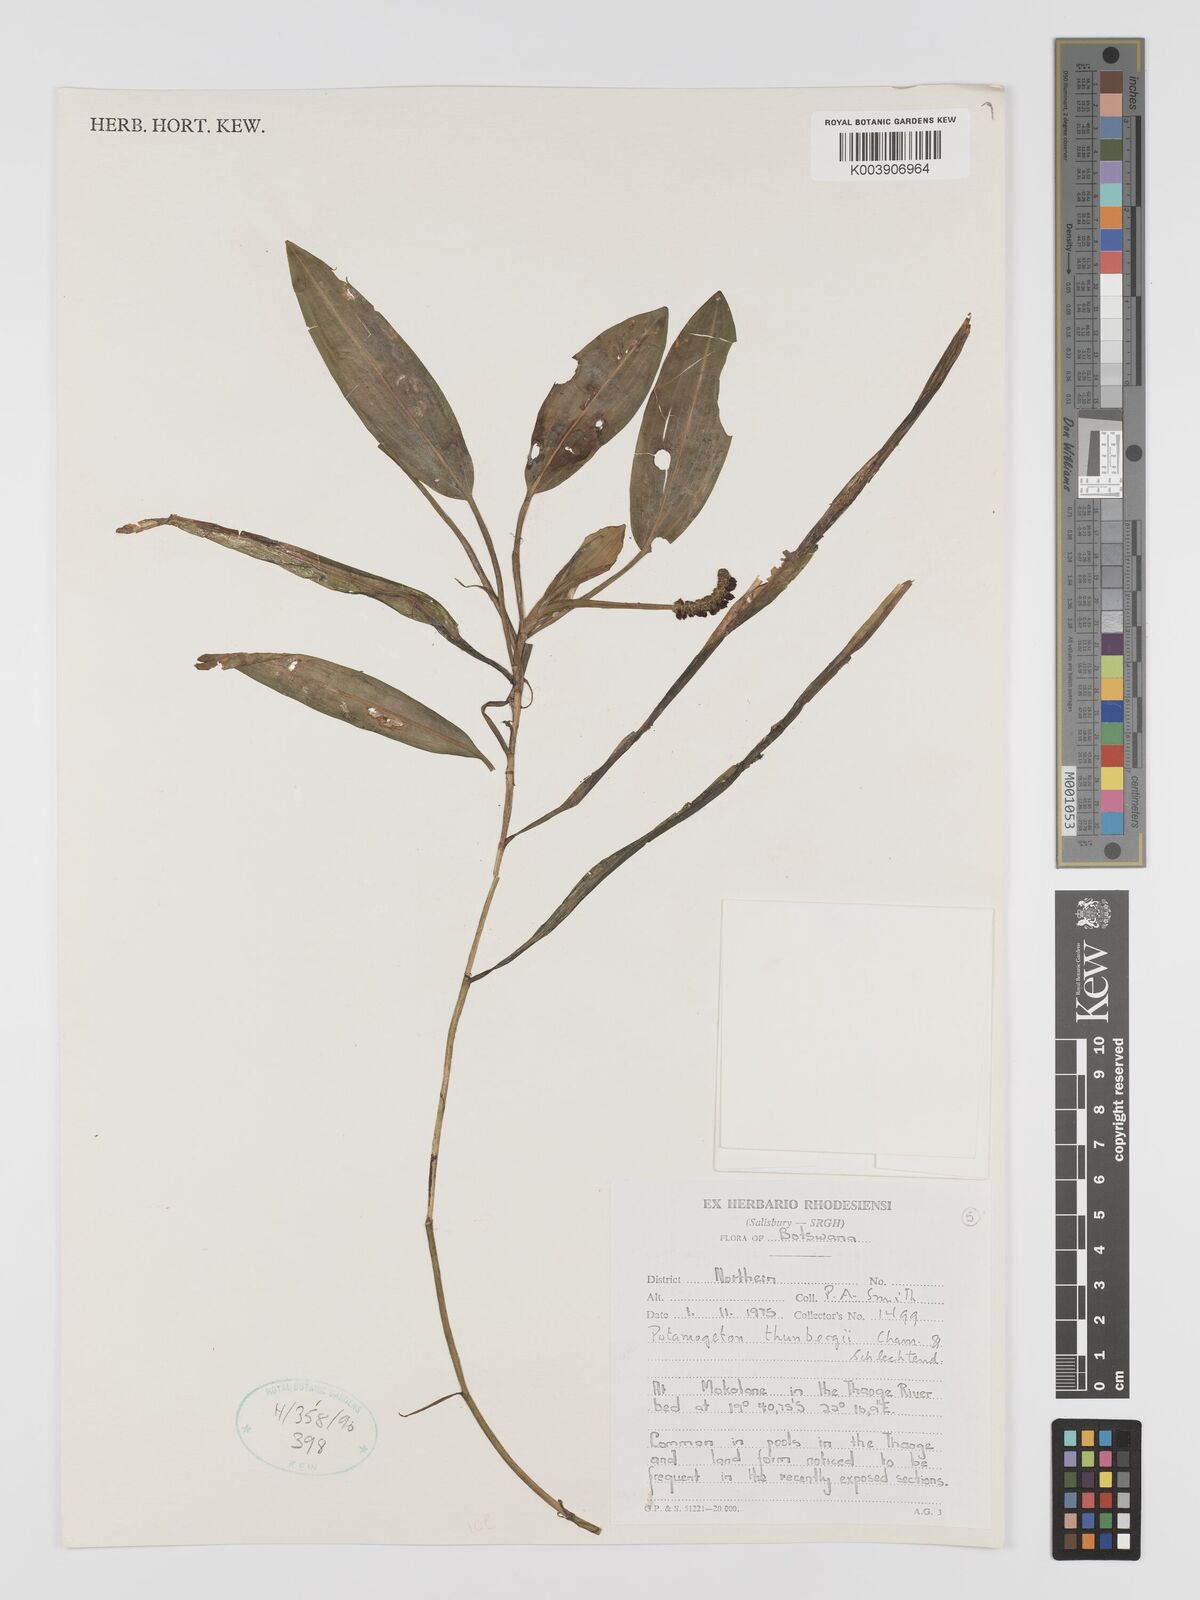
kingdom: Plantae
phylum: Tracheophyta
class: Liliopsida
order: Alismatales
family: Potamogetonaceae
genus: Potamogeton
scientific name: Potamogeton nodosus
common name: Loddon pondweed
